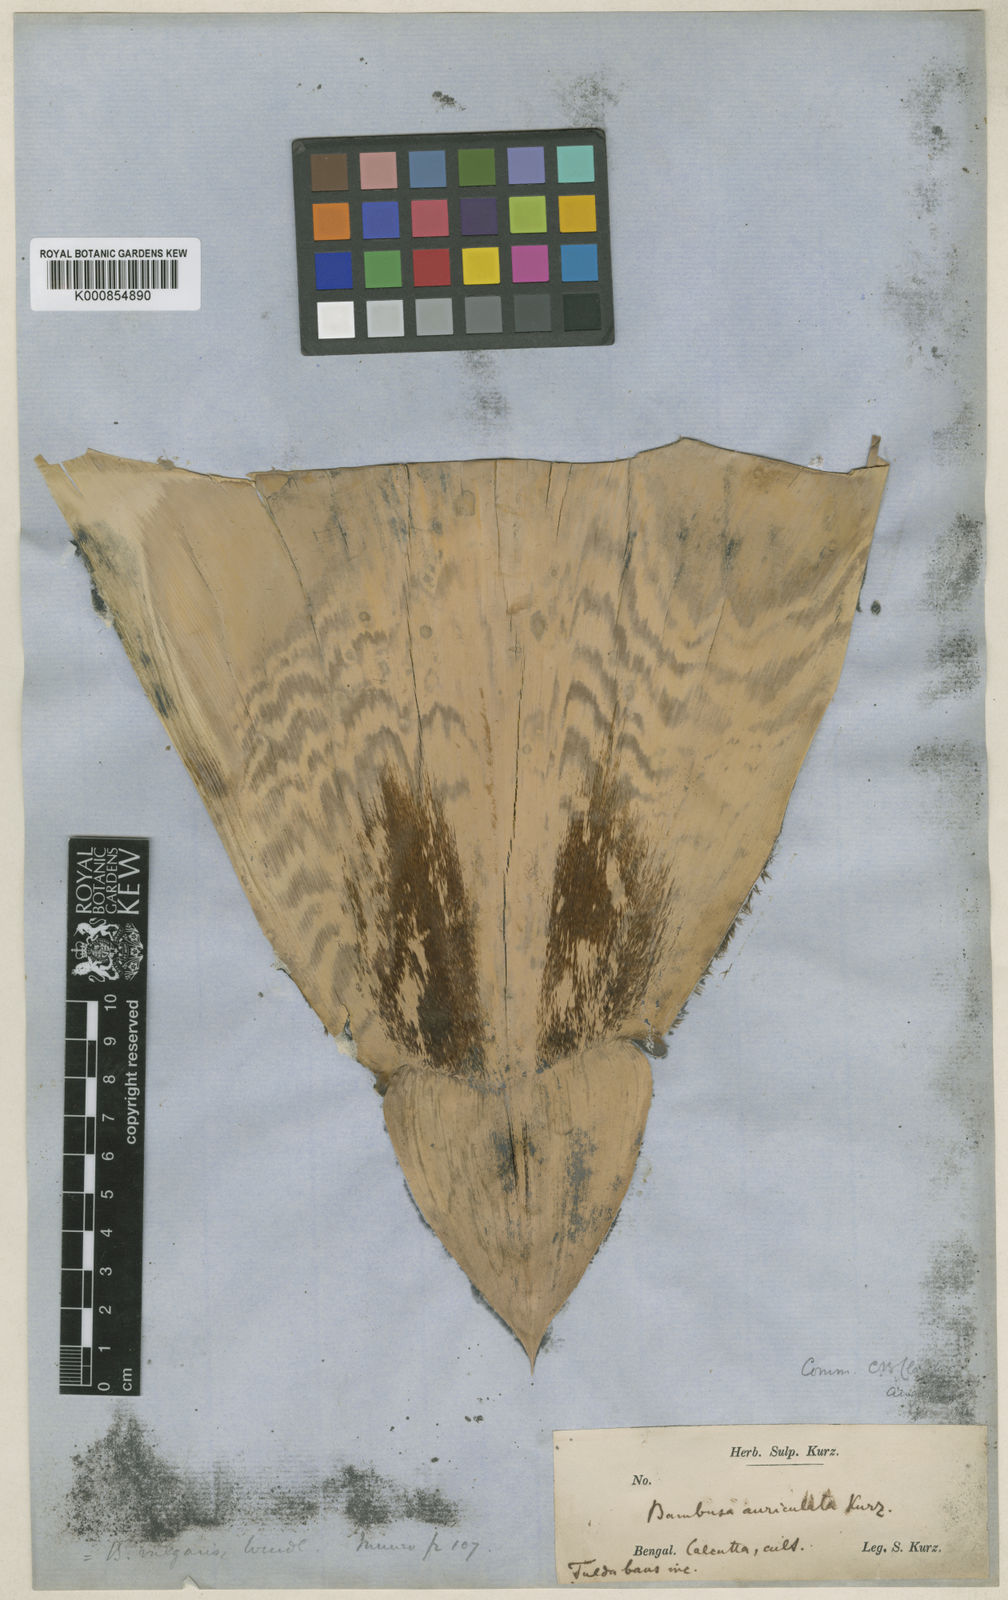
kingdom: Plantae
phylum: Tracheophyta
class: Liliopsida
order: Poales
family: Poaceae
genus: Gigantochloa
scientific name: Gigantochloa nigrociliata
